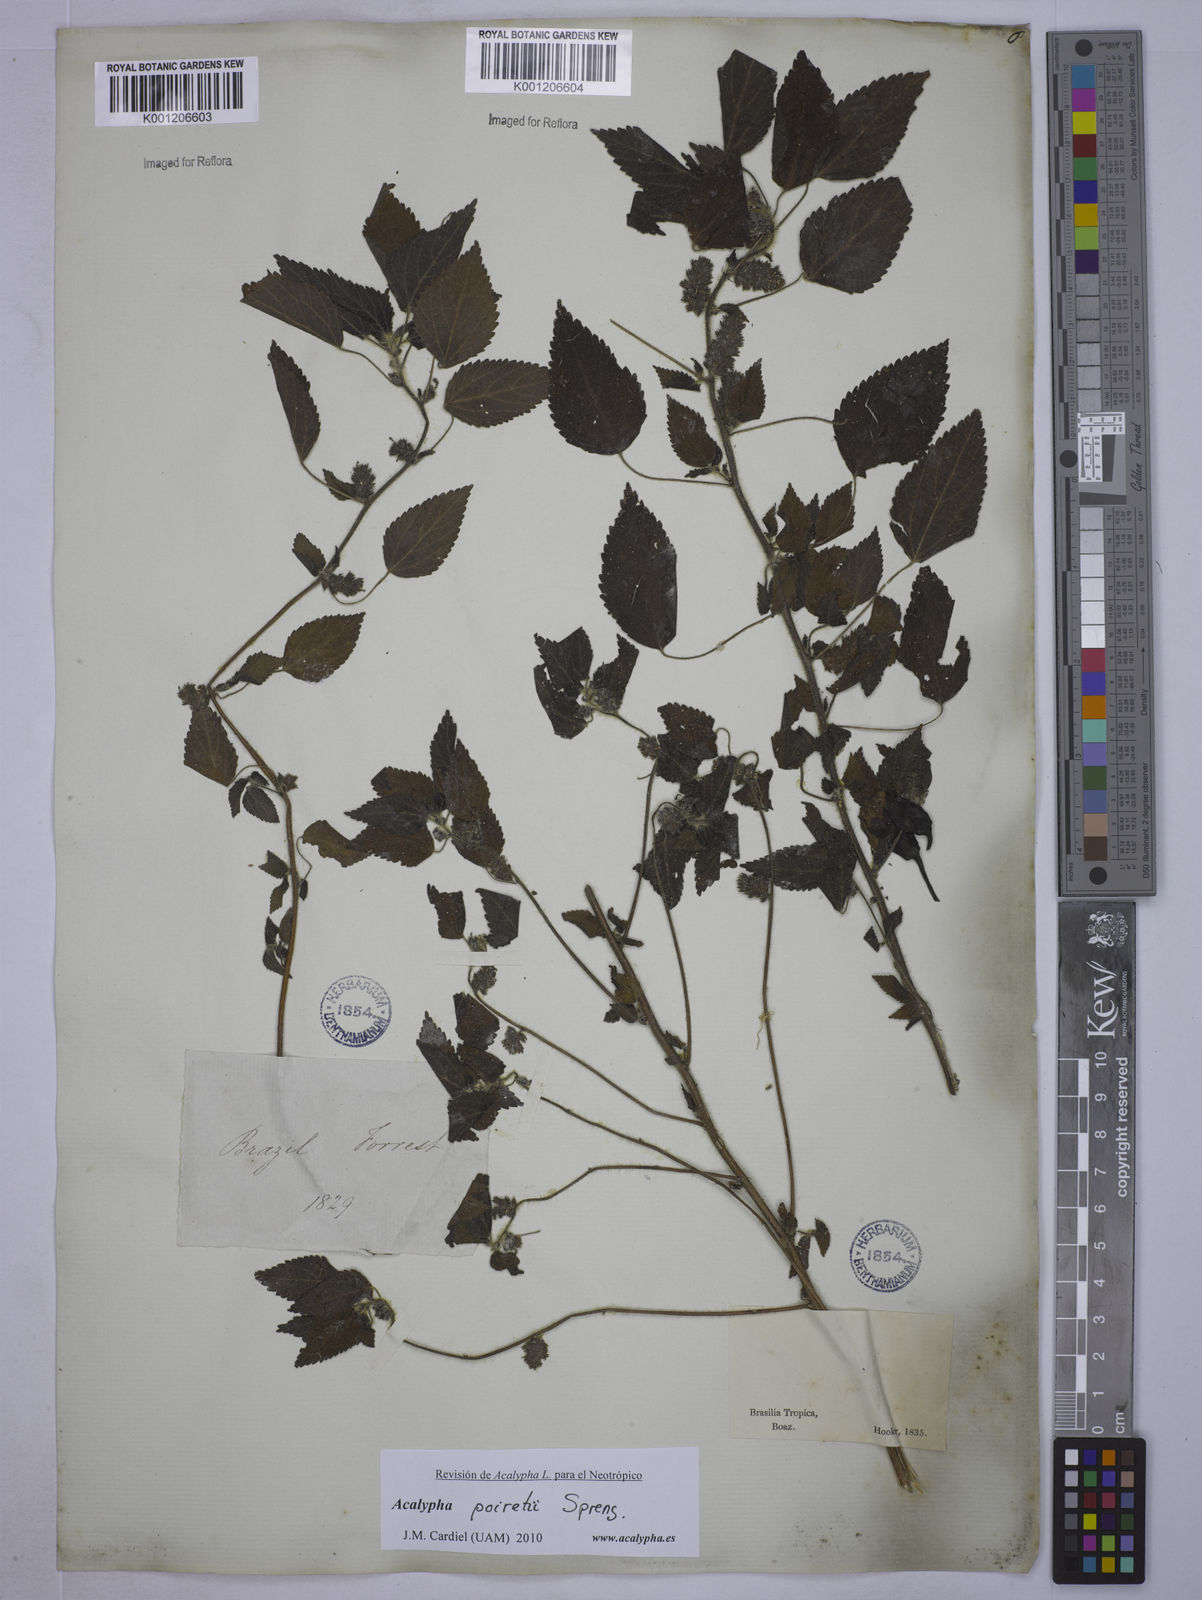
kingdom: Plantae
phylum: Tracheophyta
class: Magnoliopsida
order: Malpighiales
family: Euphorbiaceae
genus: Acalypha
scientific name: Acalypha poiretii
